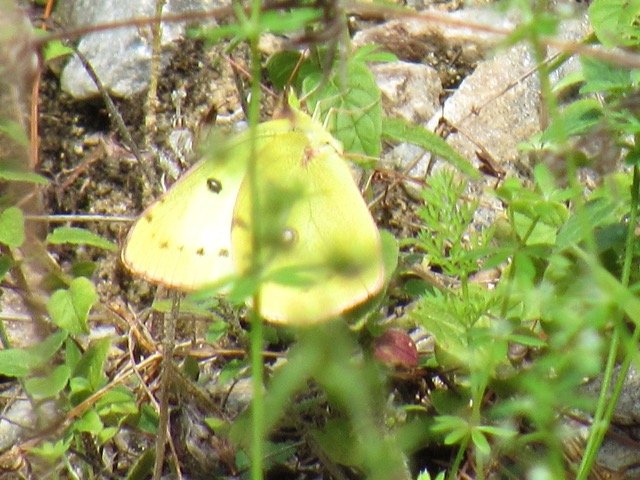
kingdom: Animalia
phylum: Arthropoda
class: Insecta
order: Lepidoptera
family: Pieridae
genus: Colias
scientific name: Colias philodice
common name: Clouded Sulphur
